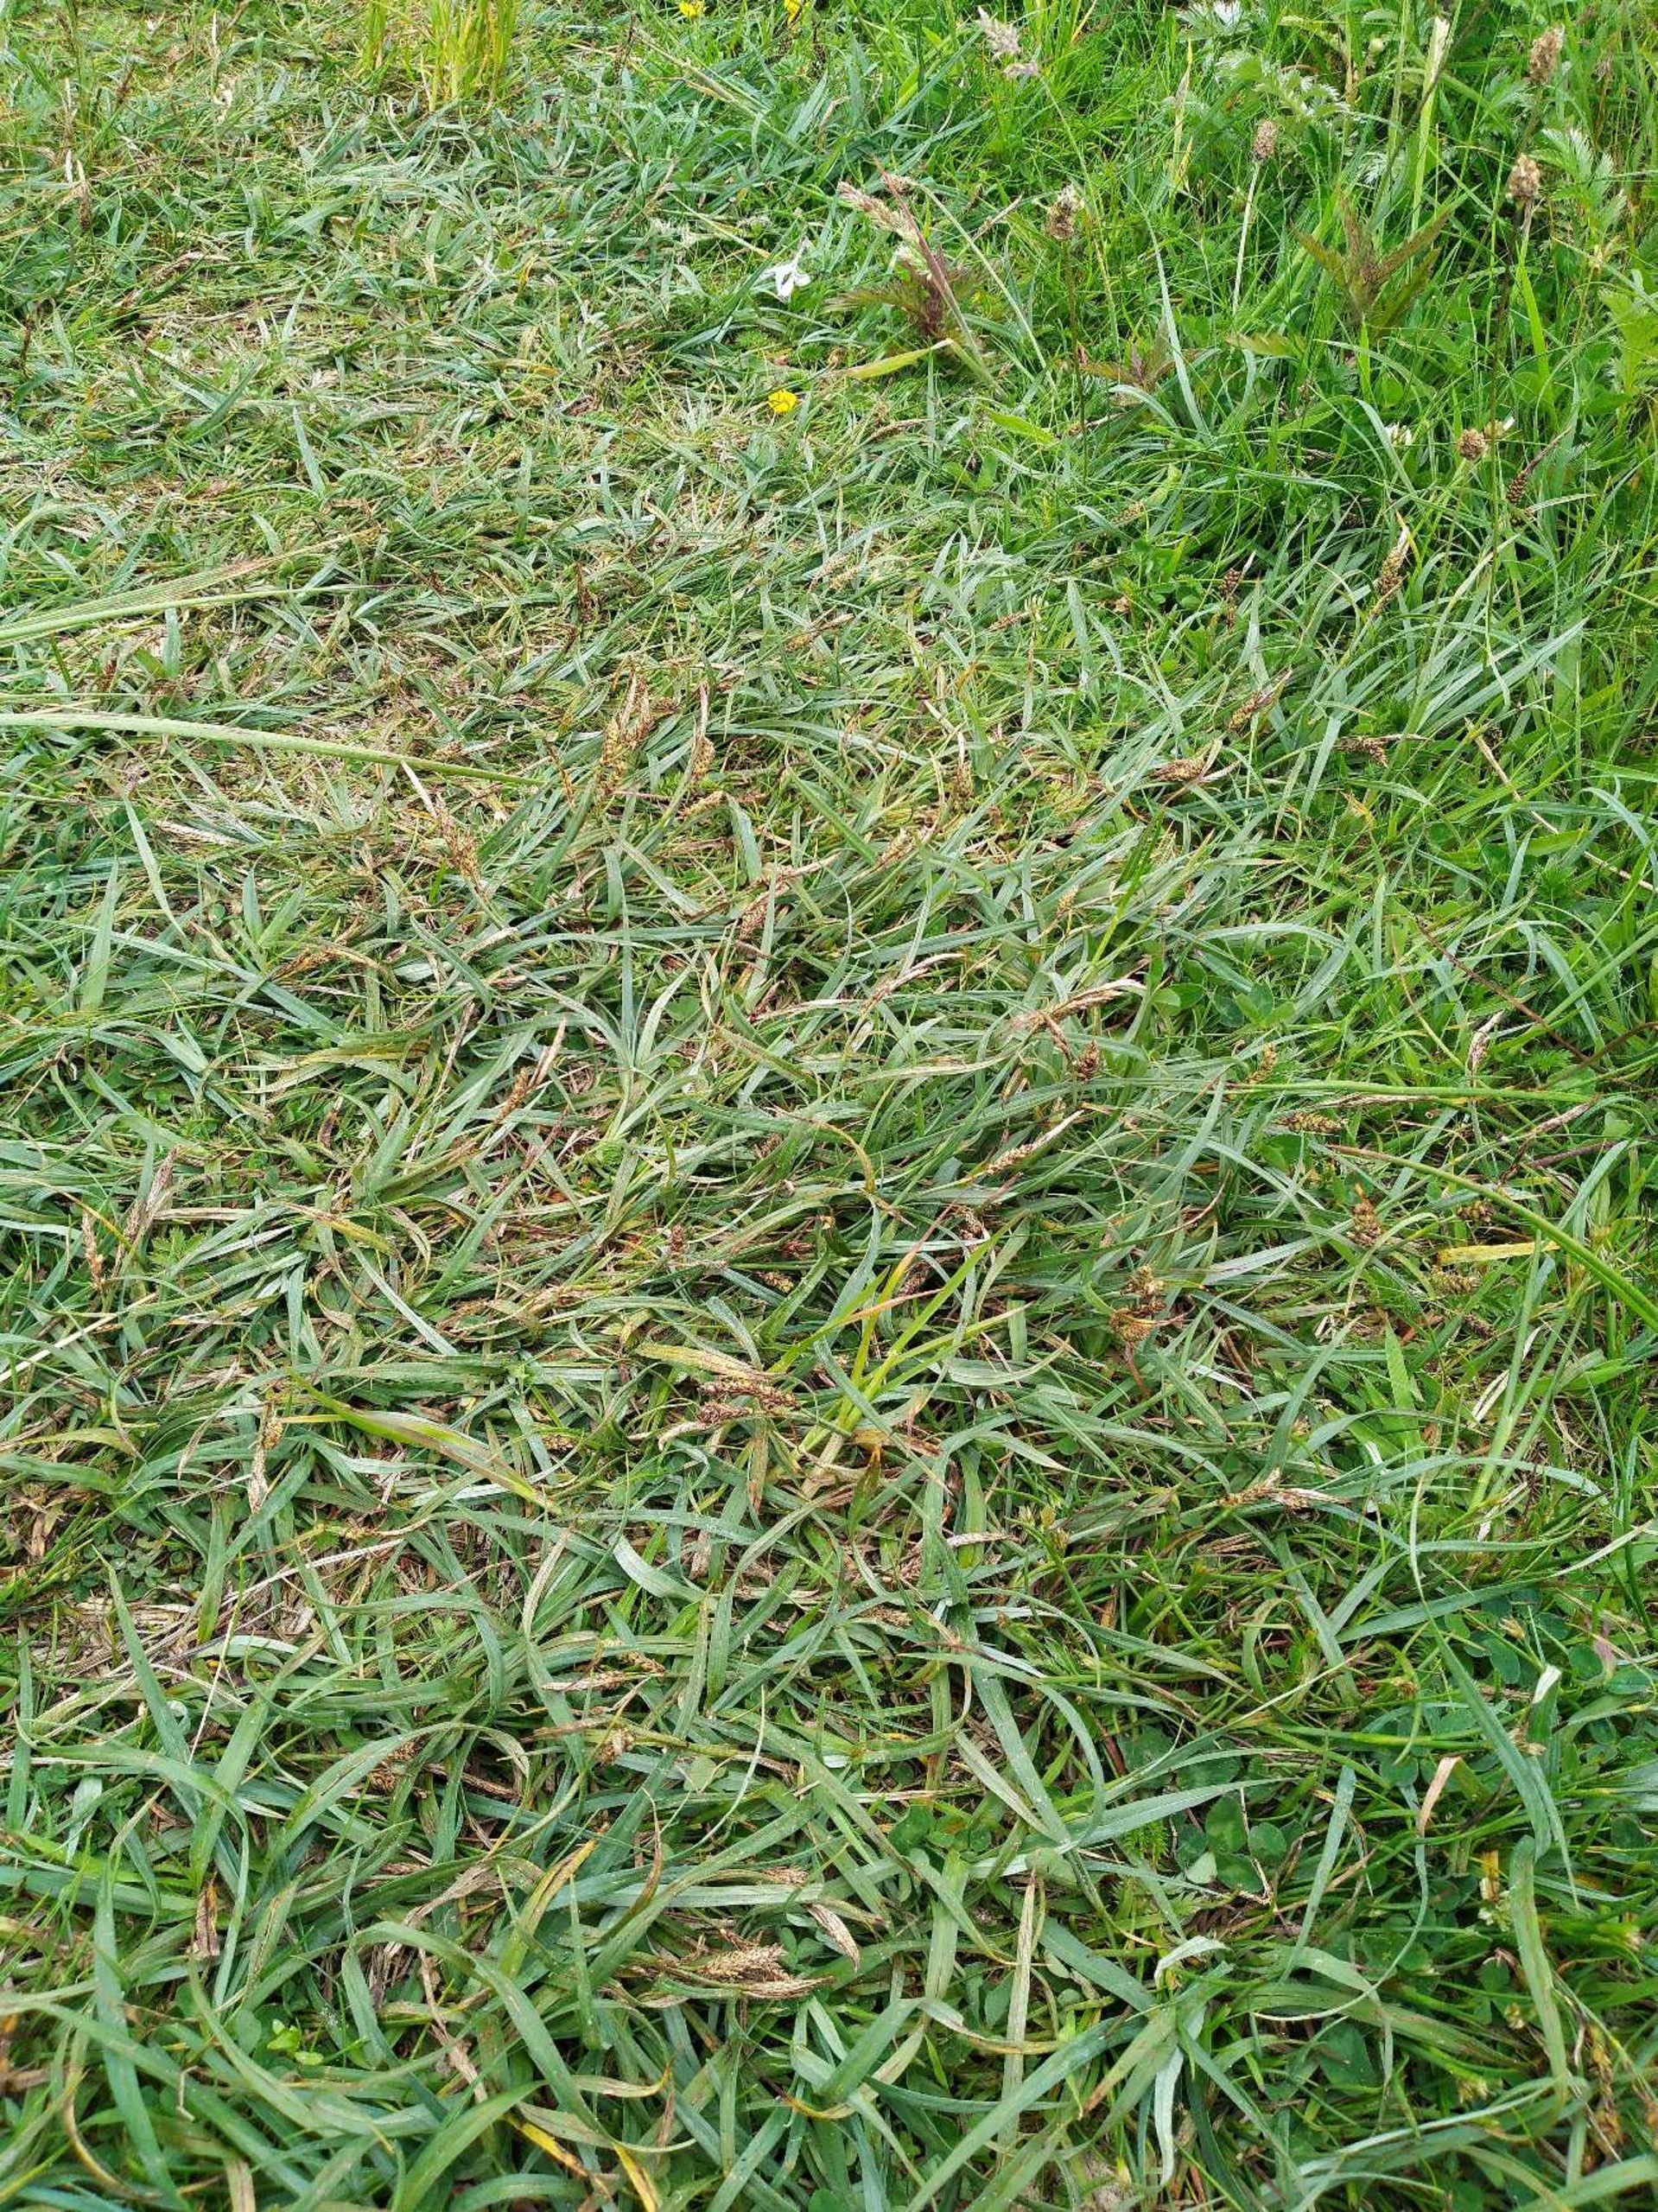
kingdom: Plantae
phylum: Tracheophyta
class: Liliopsida
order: Poales
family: Cyperaceae
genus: Carex
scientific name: Carex flacca
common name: Blågrøn star
